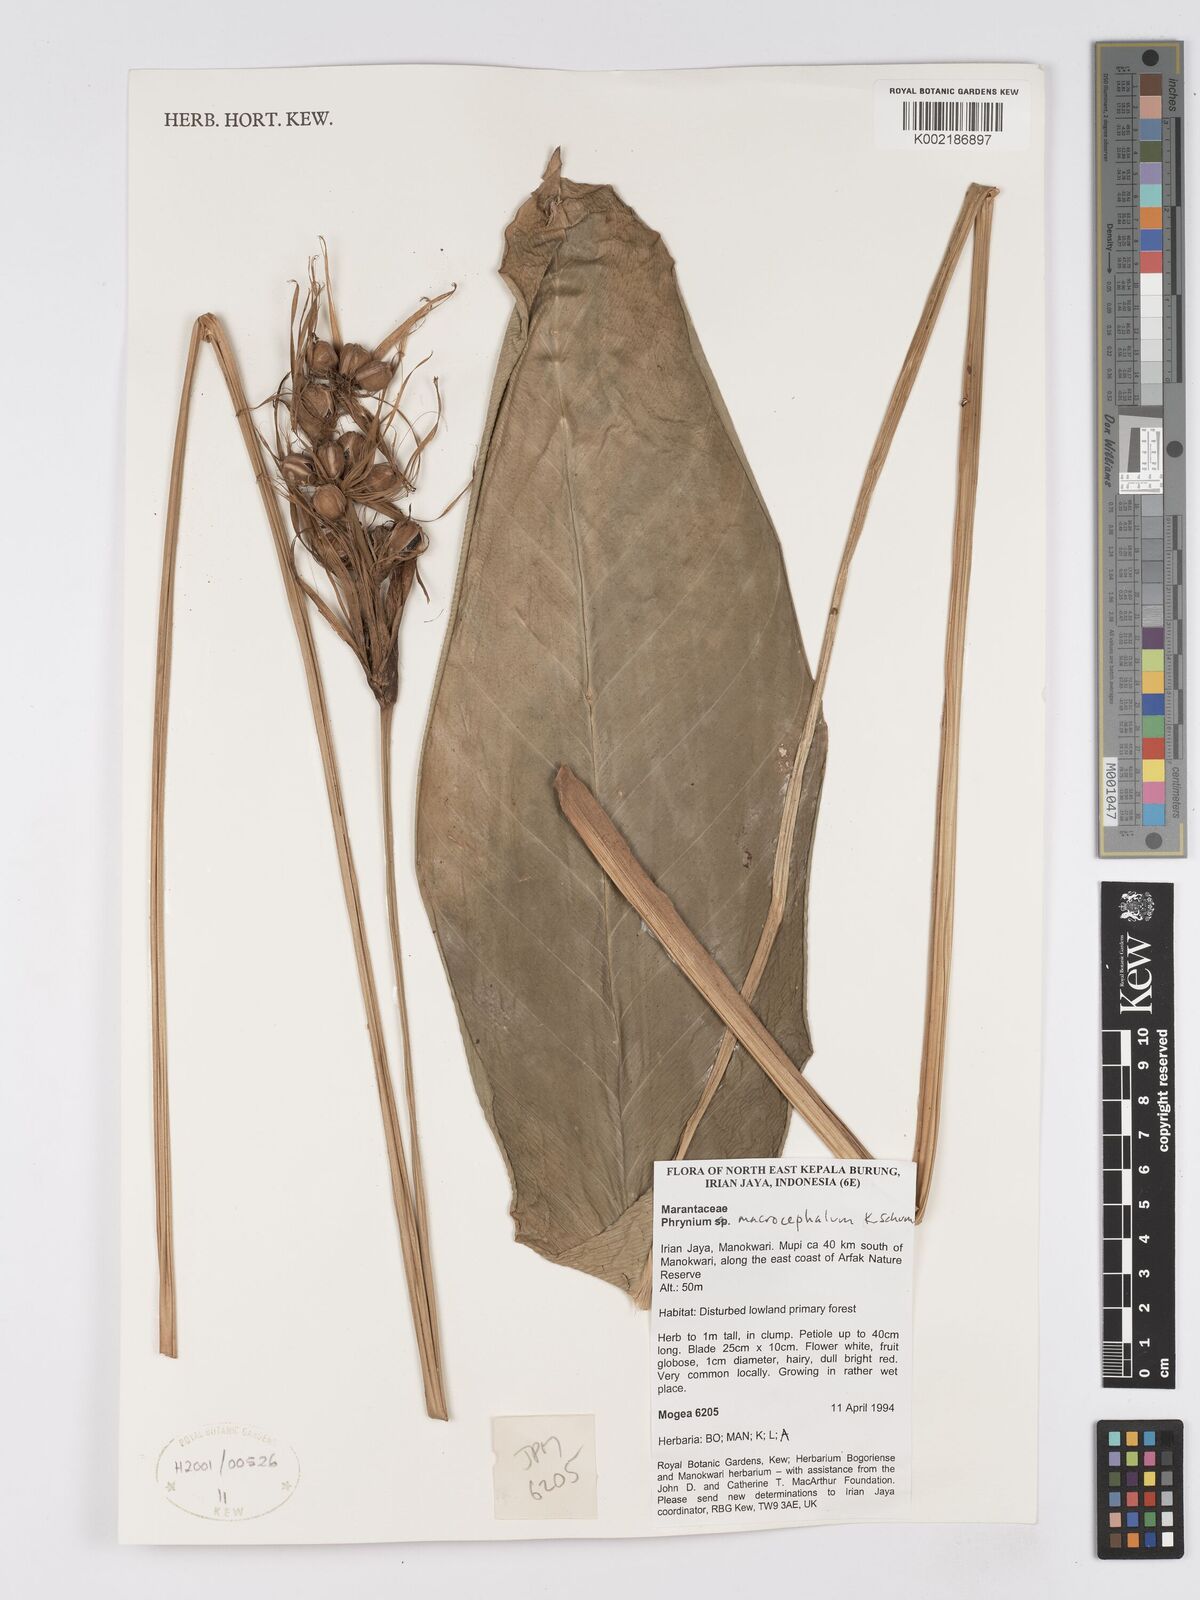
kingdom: Plantae
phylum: Tracheophyta
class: Liliopsida
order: Zingiberales
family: Marantaceae
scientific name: Marantaceae
